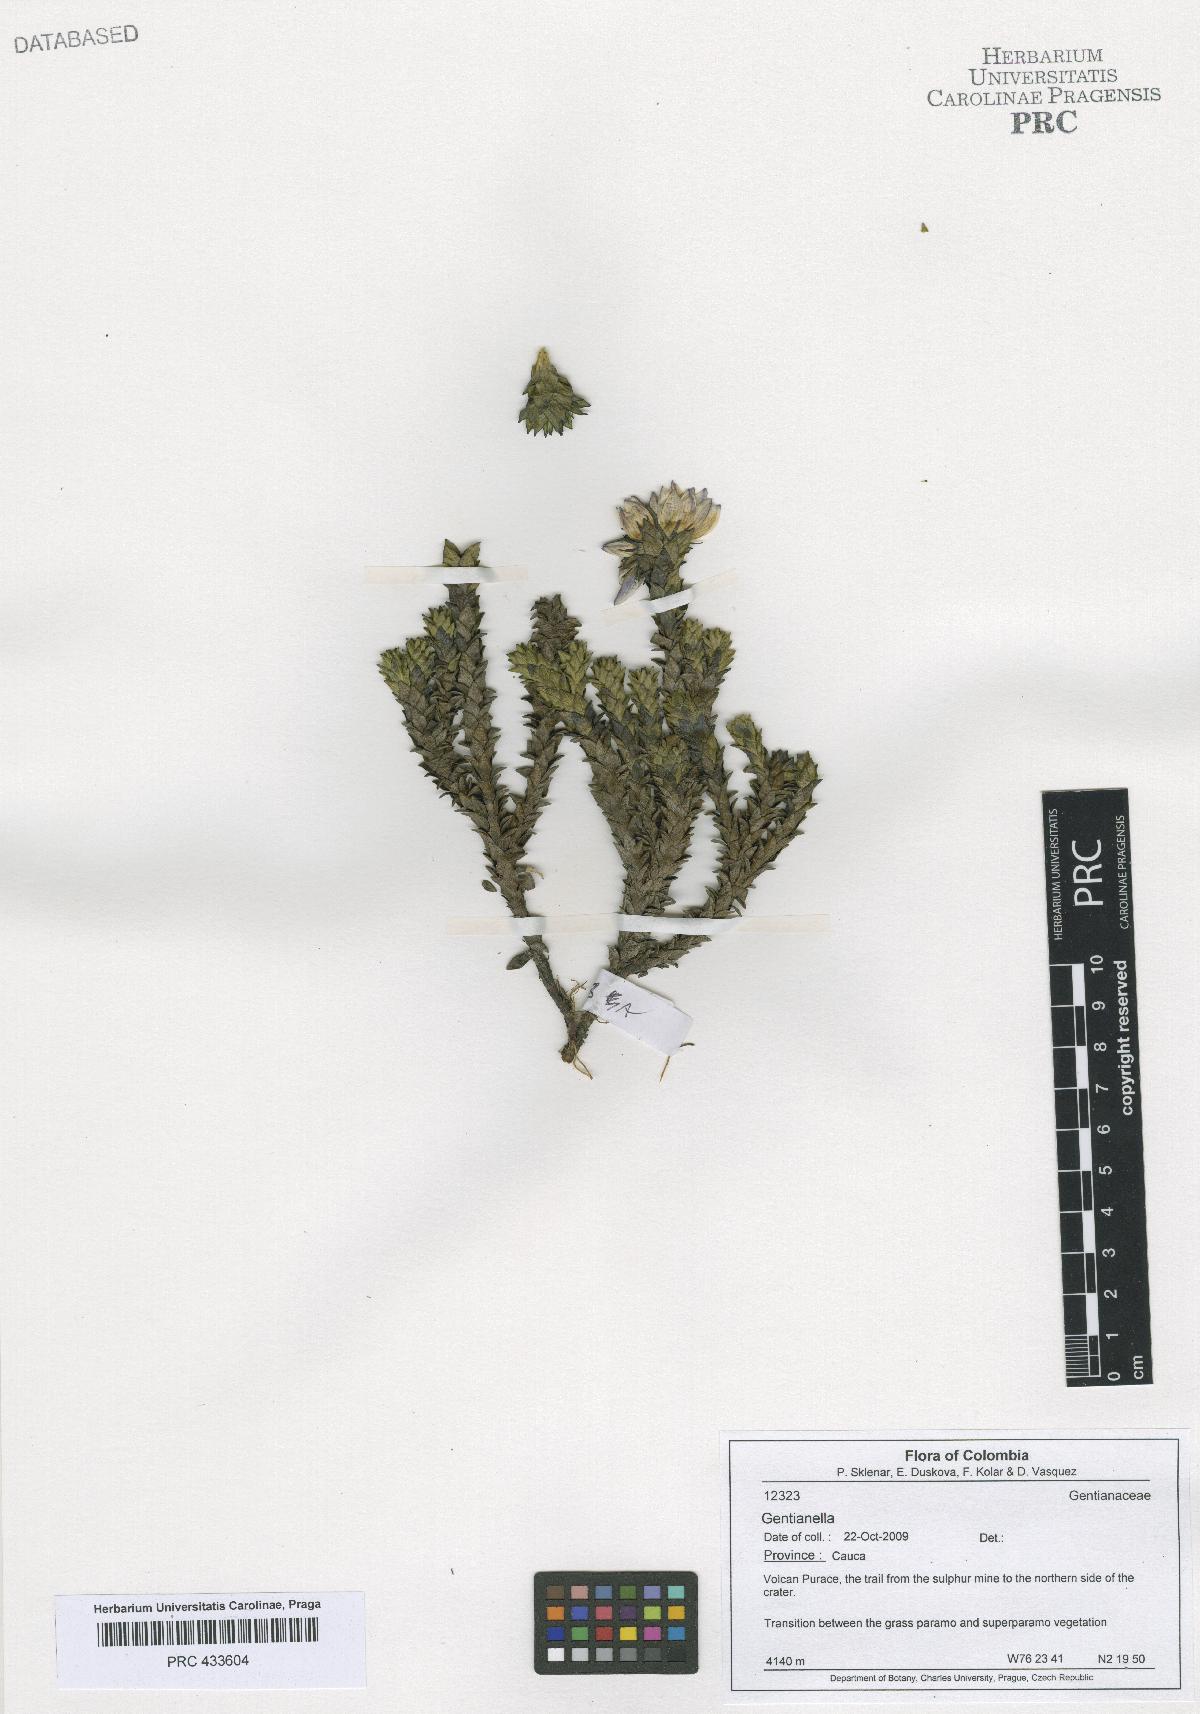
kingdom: Plantae
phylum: Tracheophyta
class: Magnoliopsida
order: Gentianales
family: Gentianaceae
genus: Gentianella
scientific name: Gentianella
